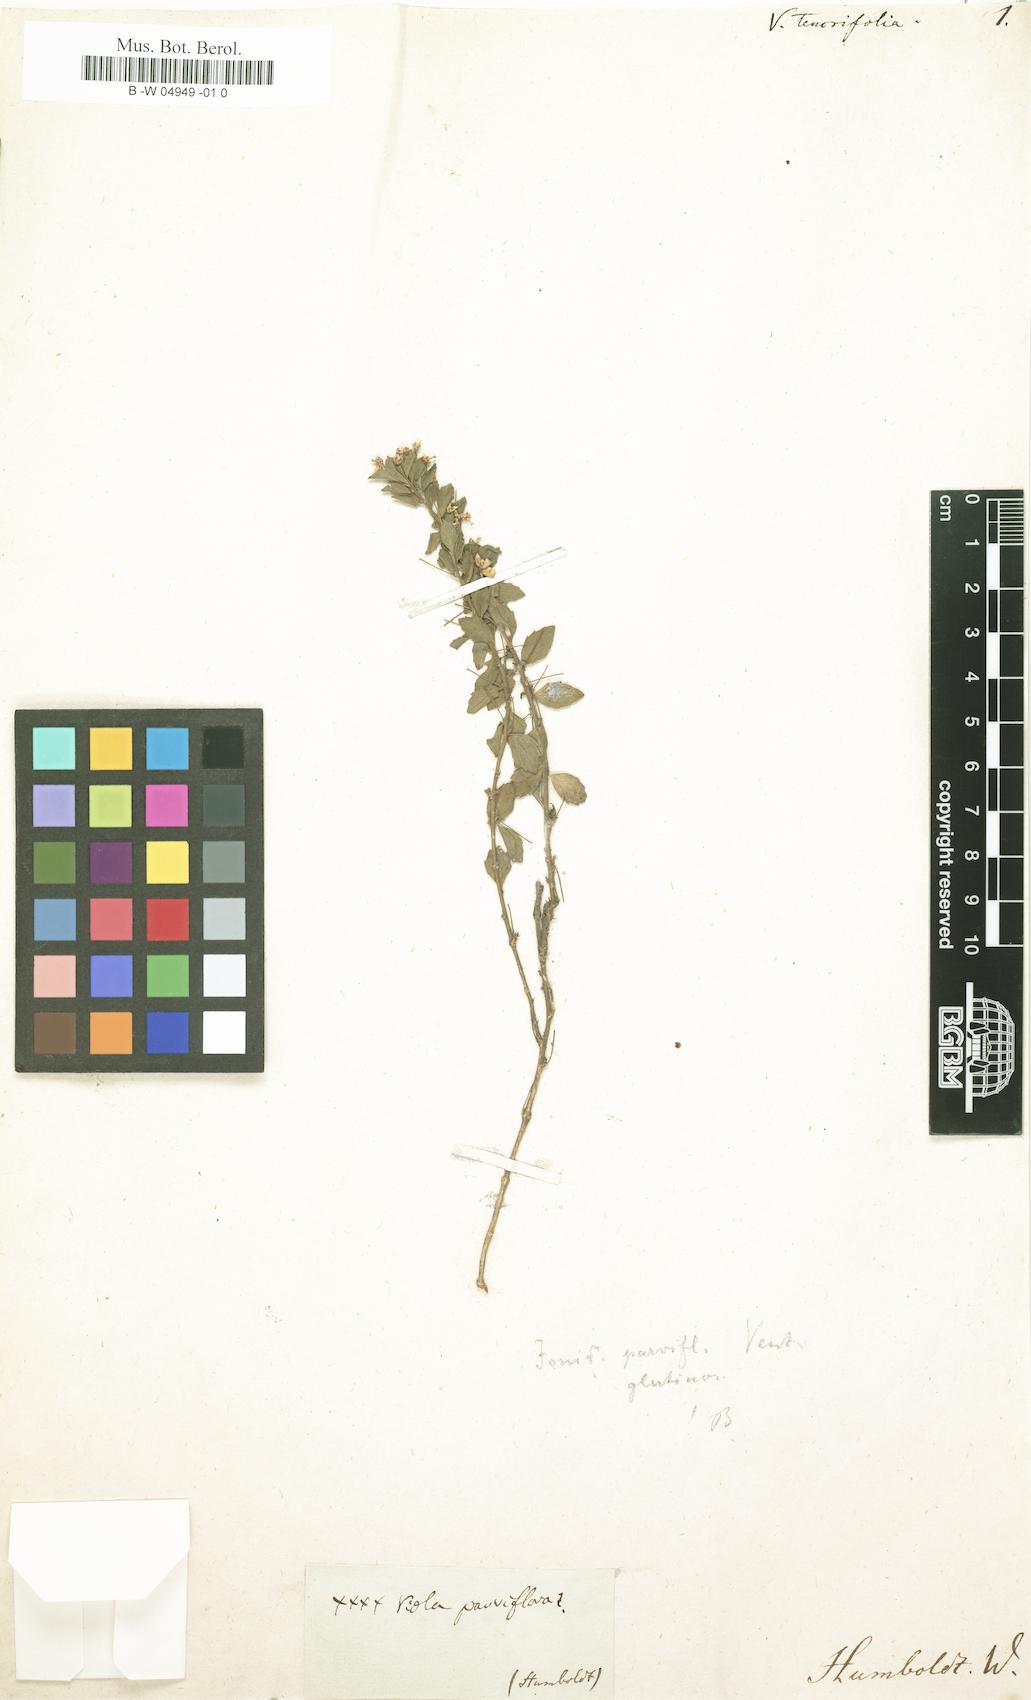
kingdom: Plantae
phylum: Tracheophyta
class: Magnoliopsida
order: Malpighiales
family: Violaceae
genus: Viola
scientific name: Viola
